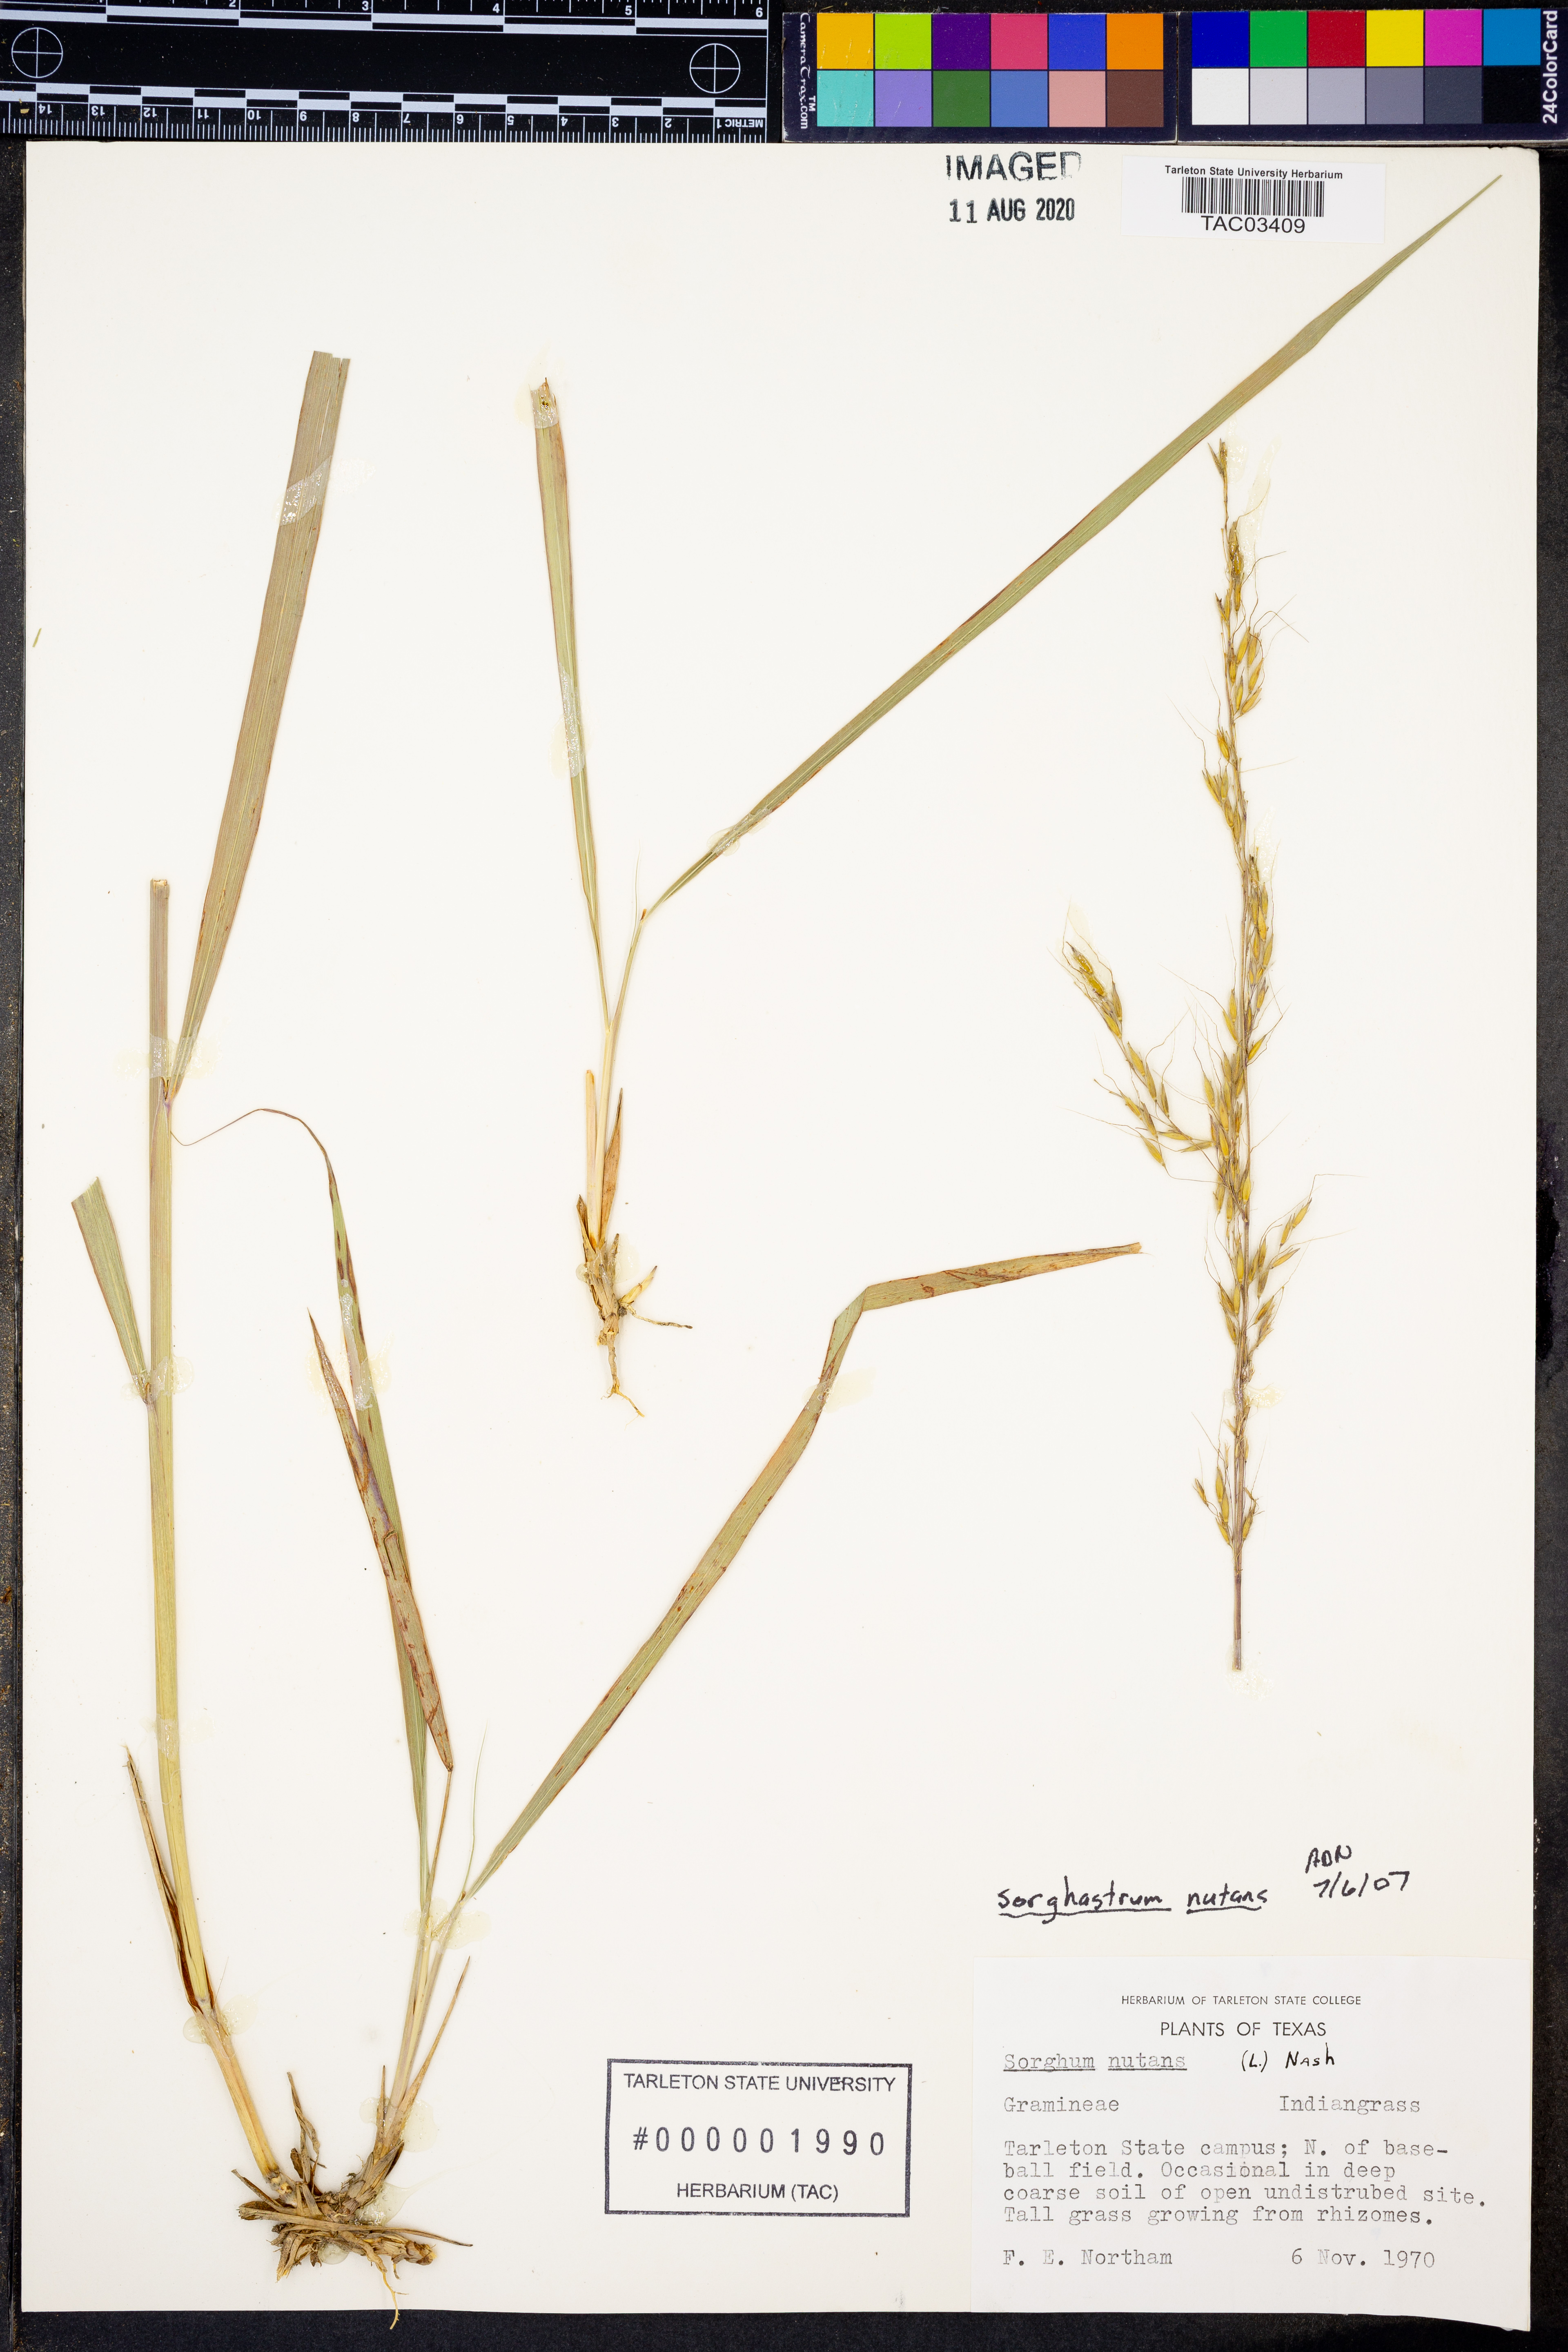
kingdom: Plantae
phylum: Tracheophyta
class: Liliopsida
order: Poales
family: Poaceae
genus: Sorghastrum
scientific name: Sorghastrum nutans
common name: Indian grass
